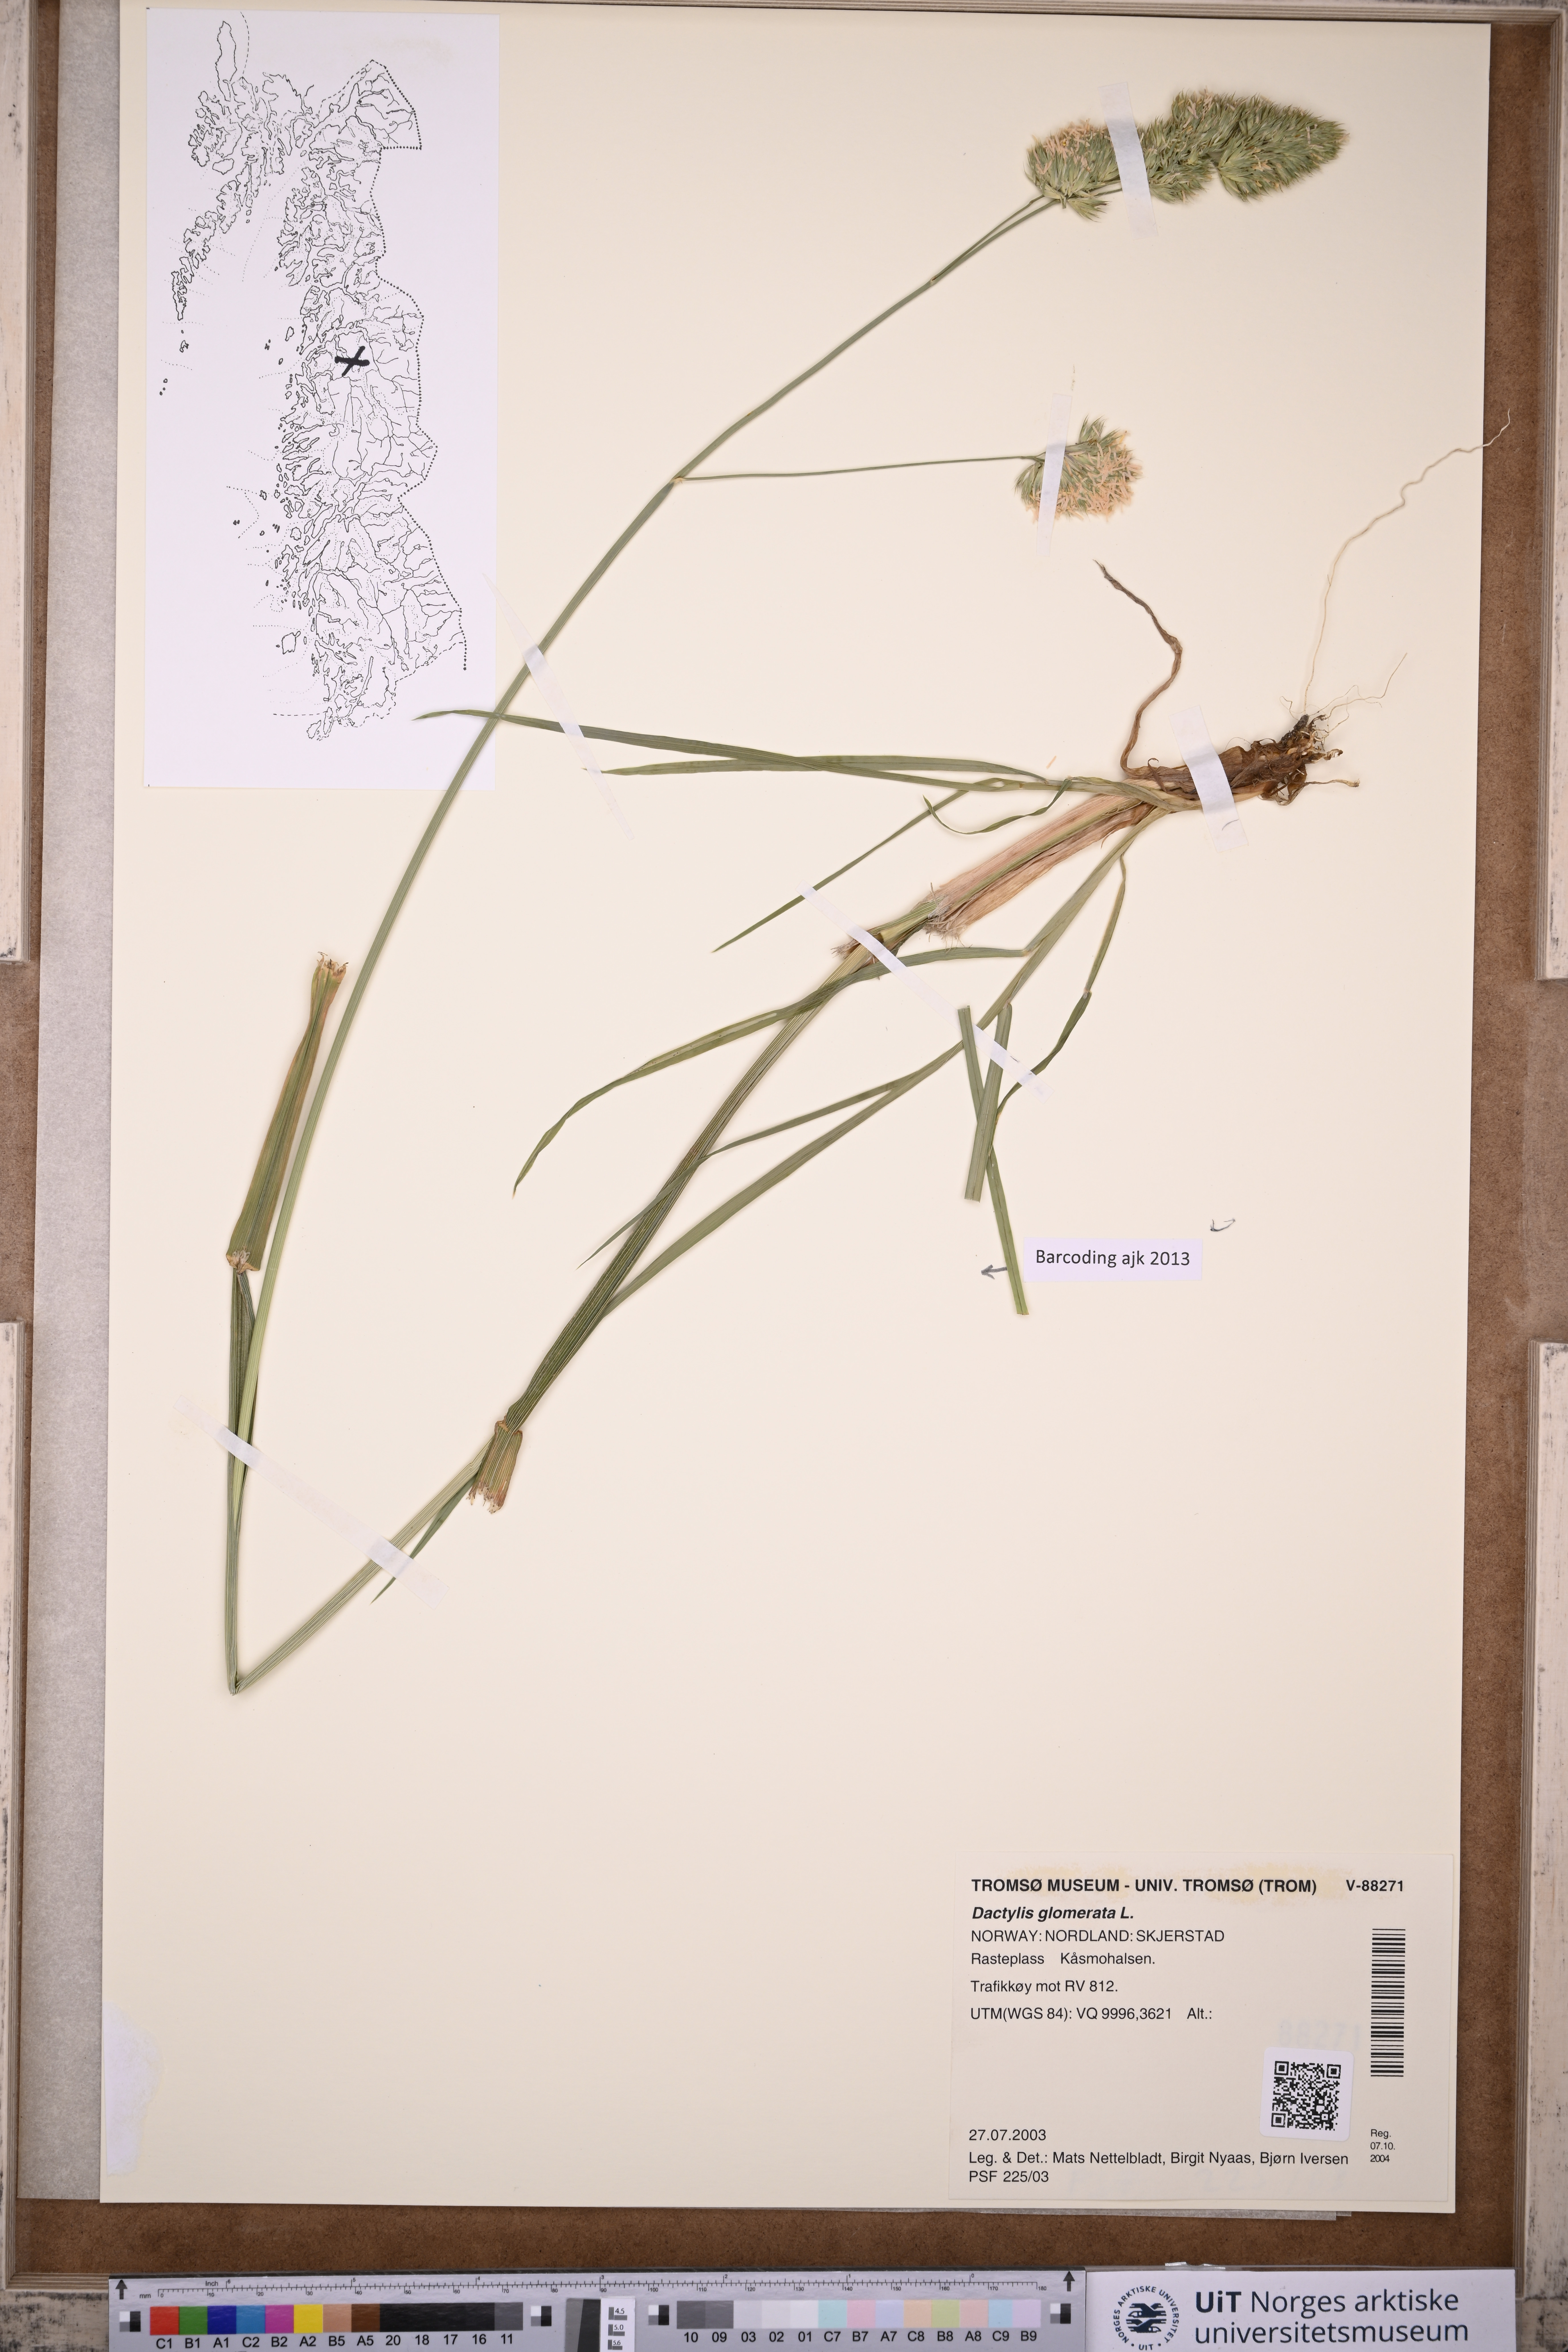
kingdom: Plantae
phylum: Tracheophyta
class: Liliopsida
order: Poales
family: Poaceae
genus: Dactylis
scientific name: Dactylis glomerata
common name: Orchardgrass
